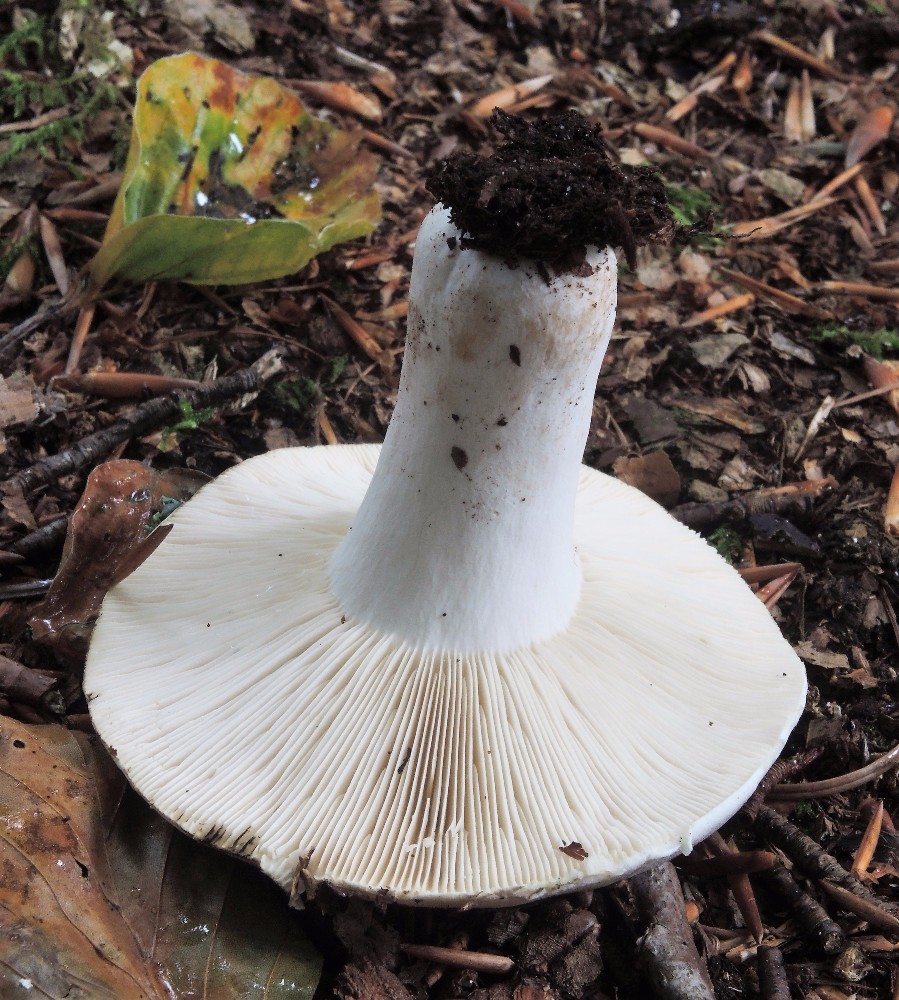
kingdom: Fungi
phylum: Basidiomycota
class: Agaricomycetes
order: Russulales
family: Russulaceae
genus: Russula
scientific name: Russula densifolia
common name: tætbladet skørhat
